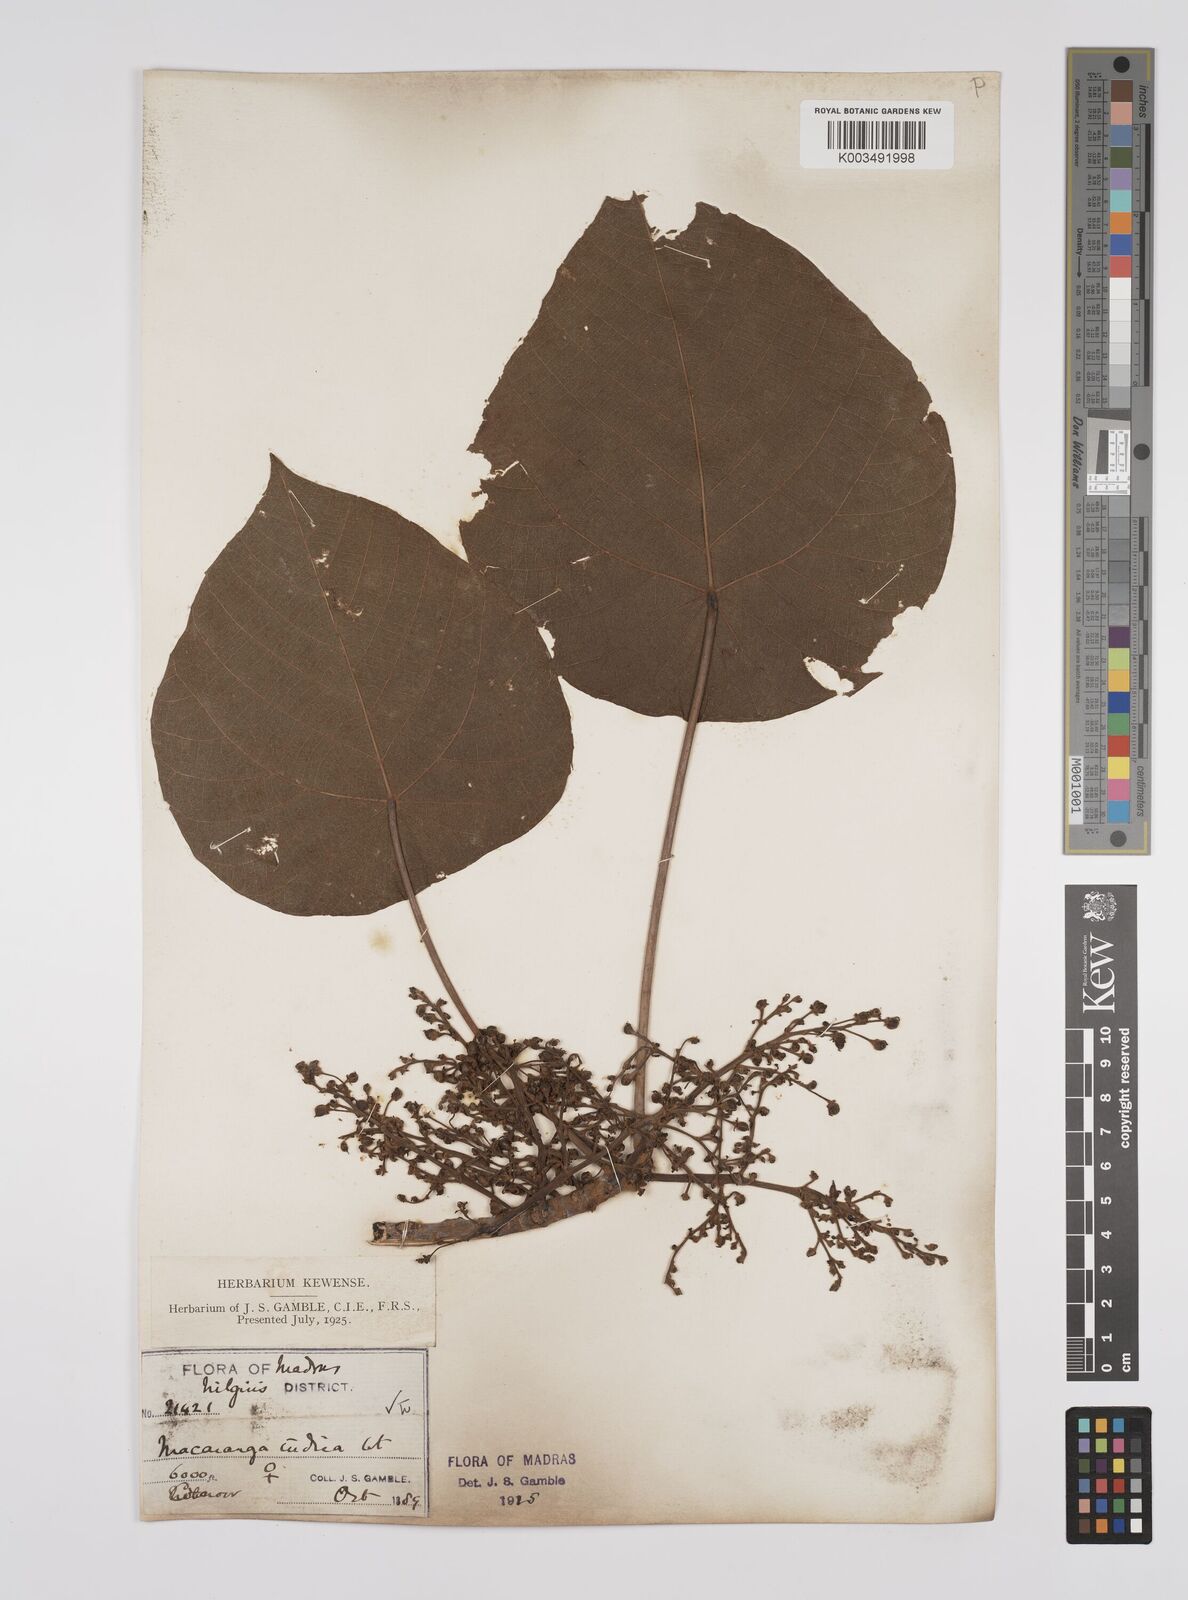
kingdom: Plantae
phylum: Tracheophyta
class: Magnoliopsida
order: Malpighiales
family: Euphorbiaceae
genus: Macaranga
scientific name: Macaranga indica
